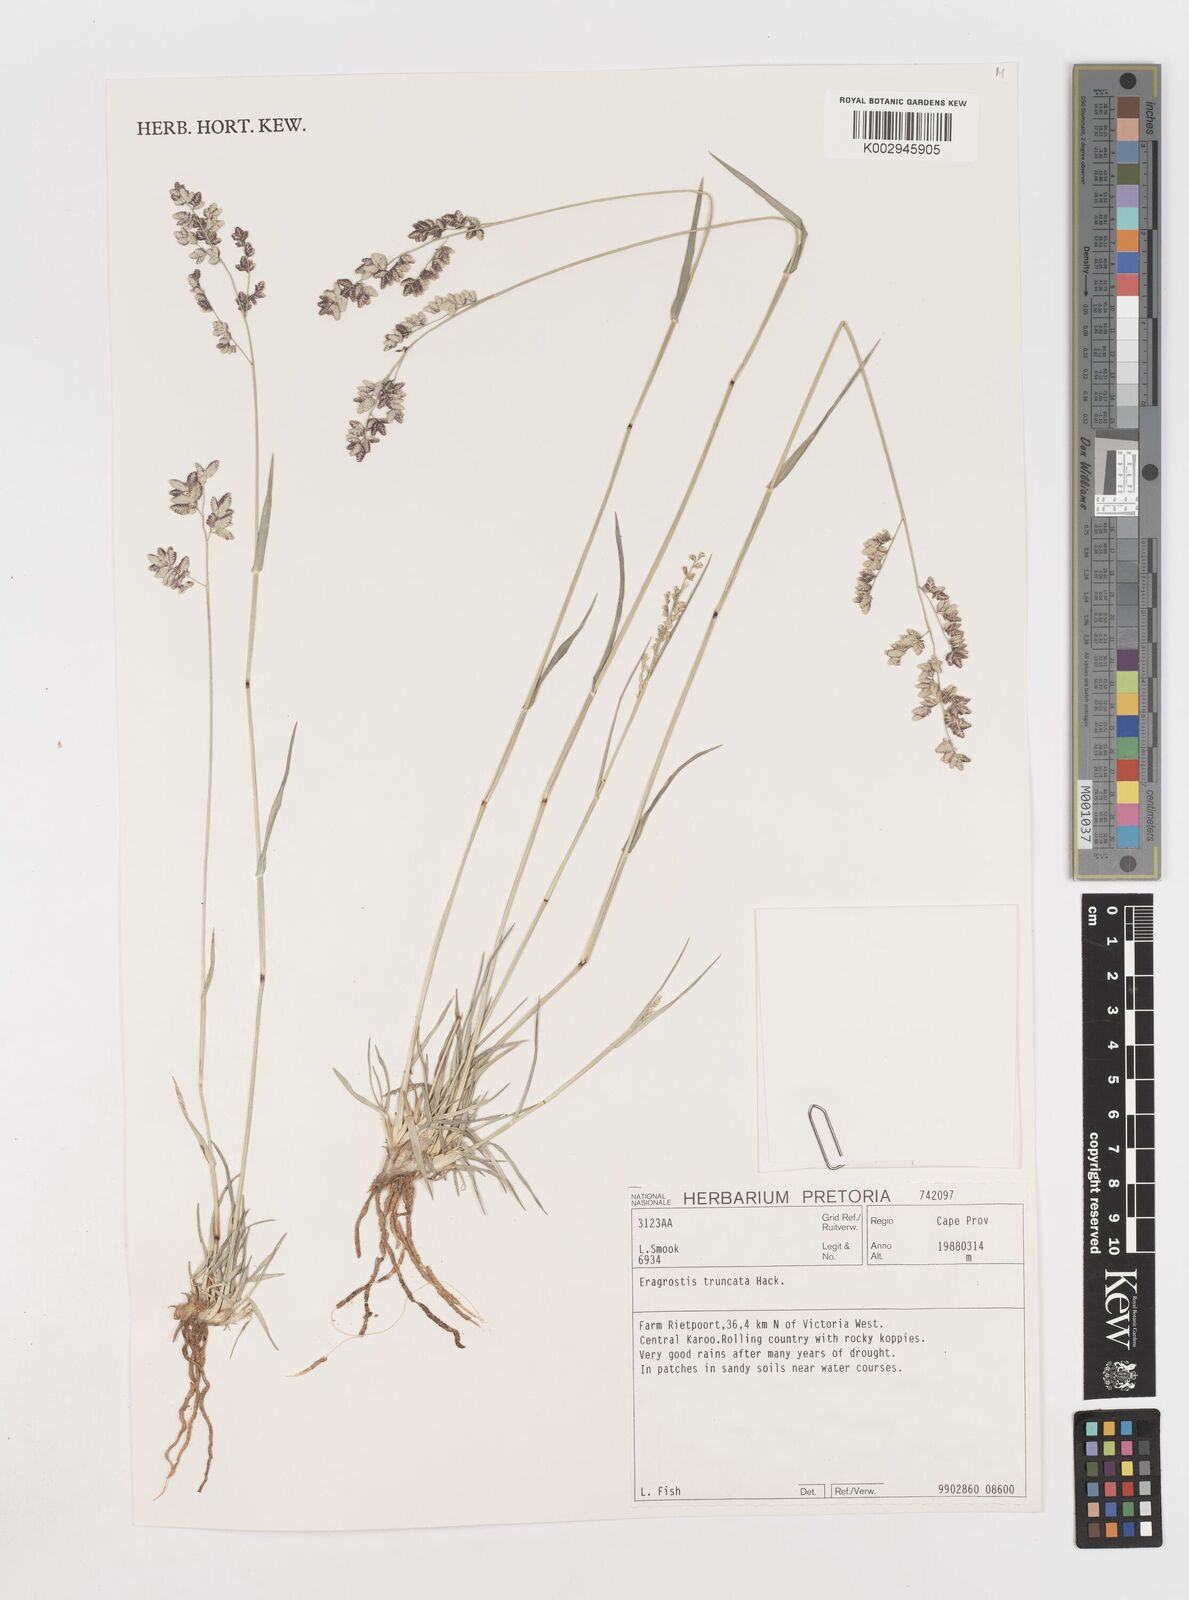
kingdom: Plantae
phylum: Tracheophyta
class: Liliopsida
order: Poales
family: Poaceae
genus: Eragrostis
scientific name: Eragrostis truncata
